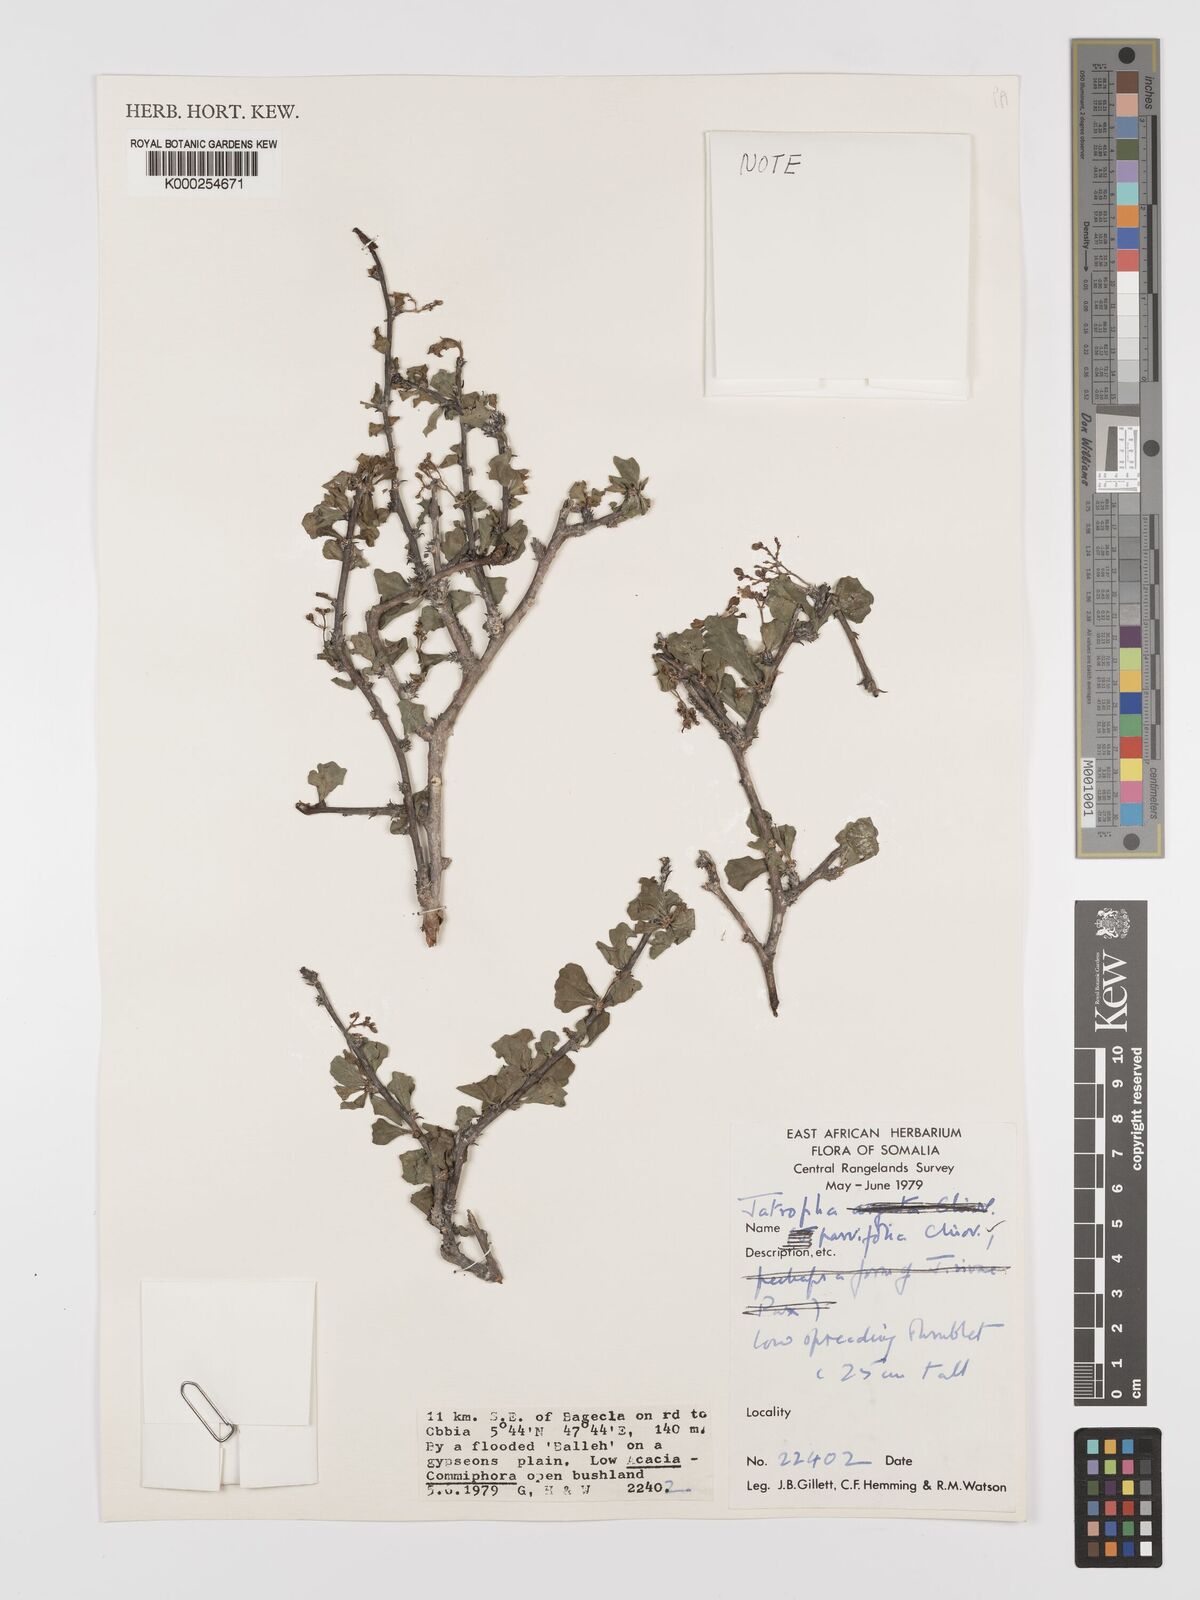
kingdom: Plantae
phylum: Tracheophyta
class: Magnoliopsida
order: Malpighiales
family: Euphorbiaceae
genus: Jatropha
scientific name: Jatropha rivae
